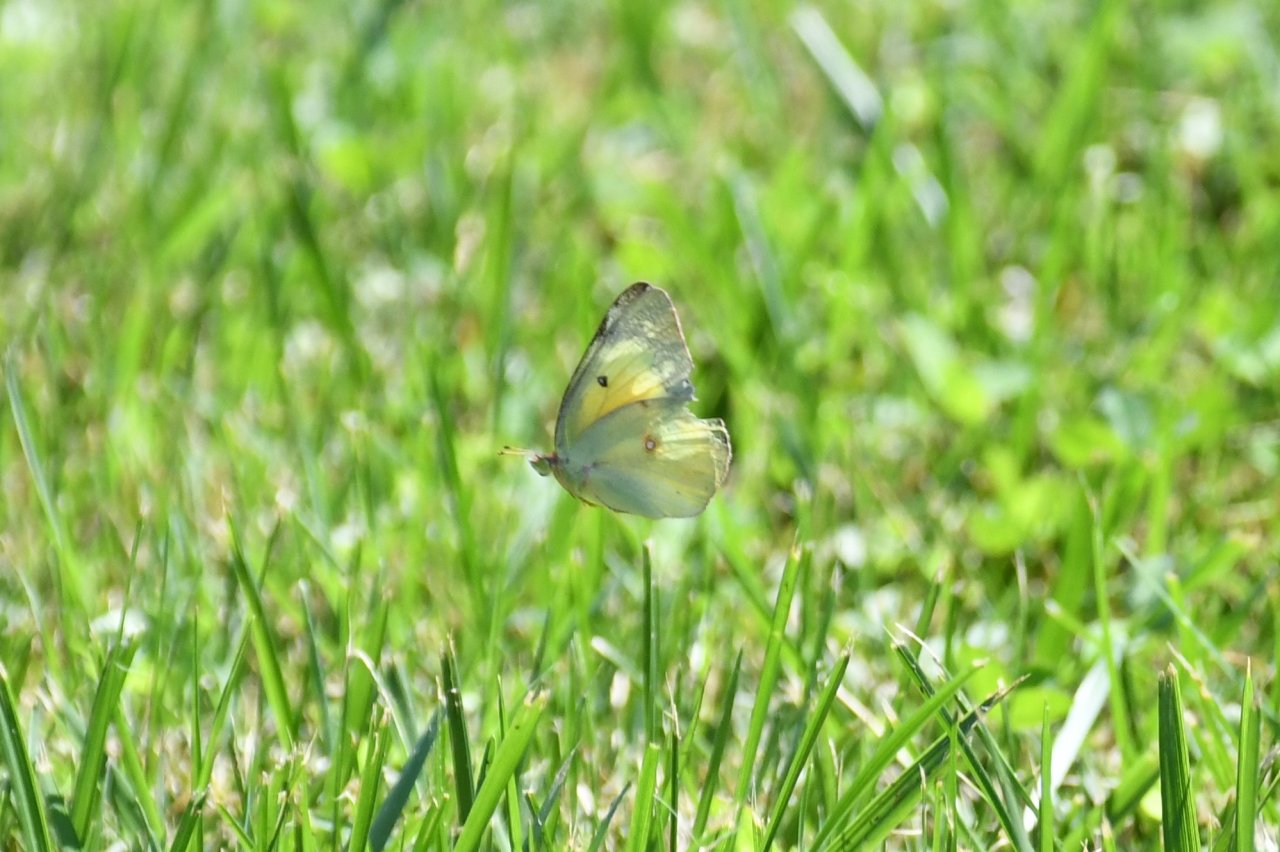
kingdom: Animalia
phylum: Arthropoda
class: Insecta
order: Lepidoptera
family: Pieridae
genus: Colias
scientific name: Colias
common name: Clouded Yellows
